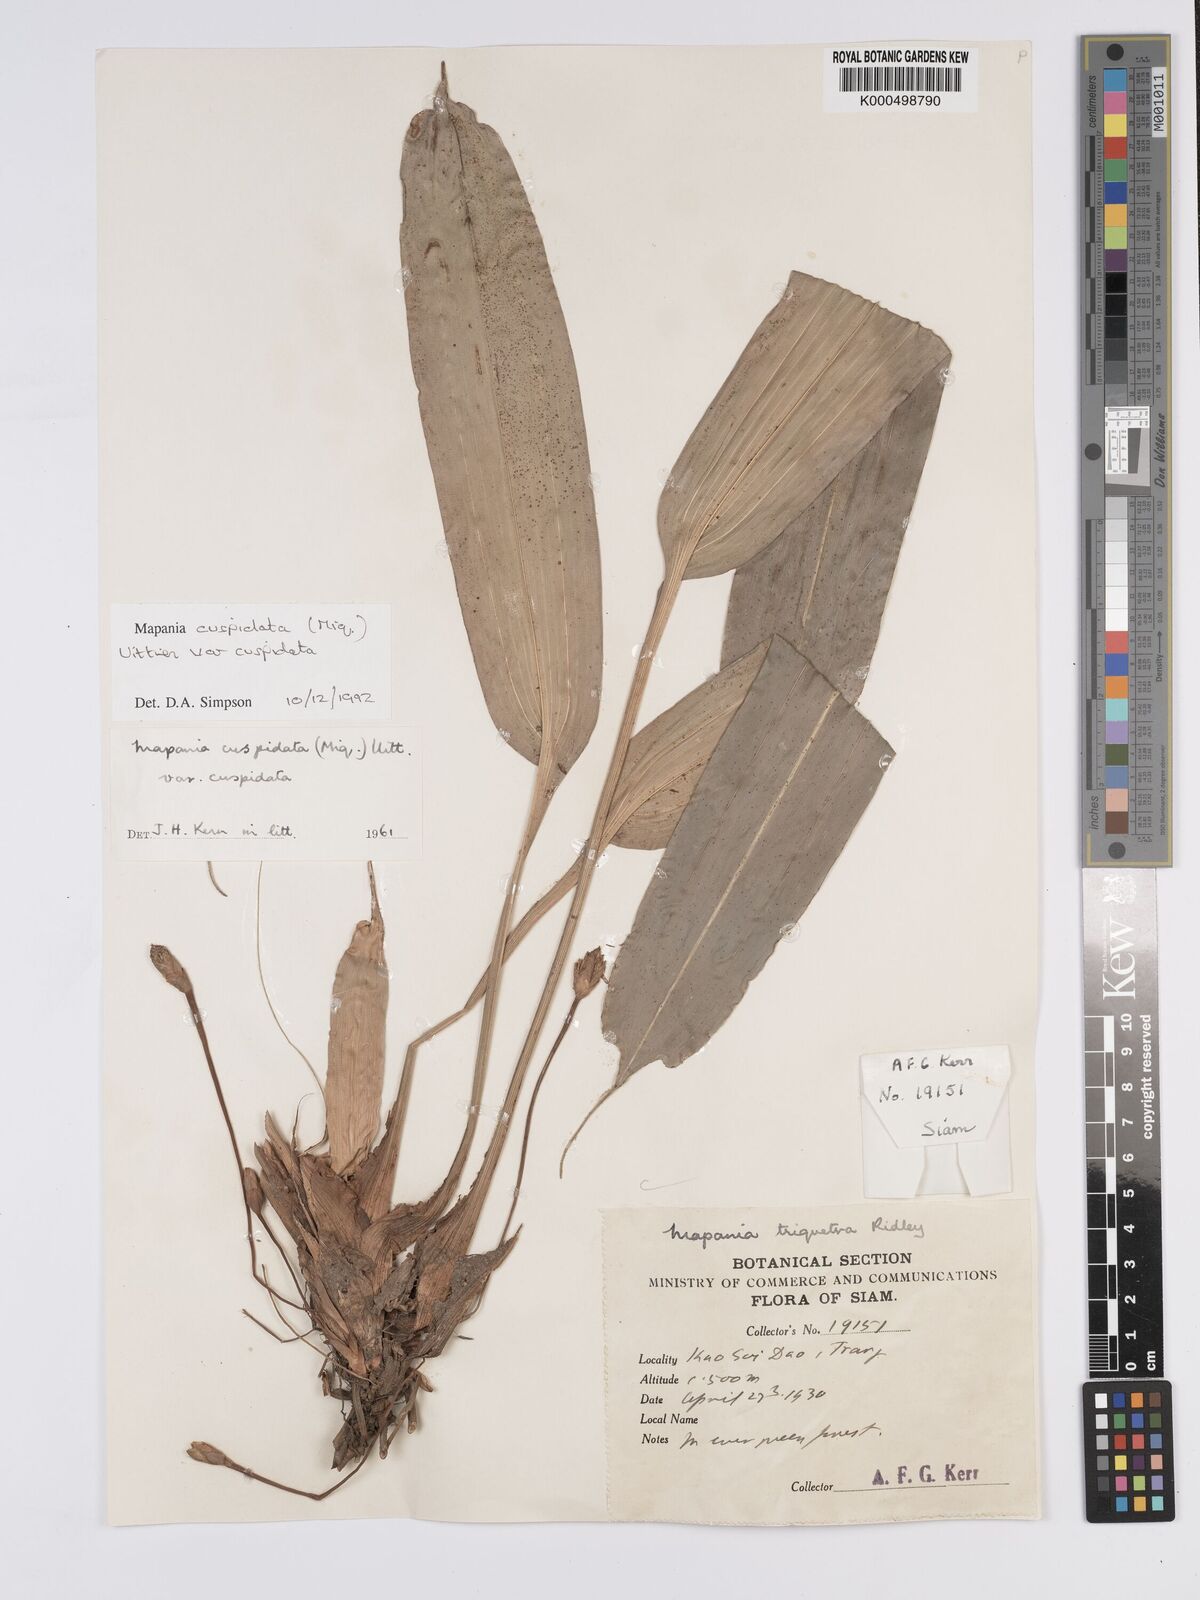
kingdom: Plantae
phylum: Tracheophyta
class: Liliopsida
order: Poales
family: Cyperaceae
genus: Mapania
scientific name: Mapania cuspidata
